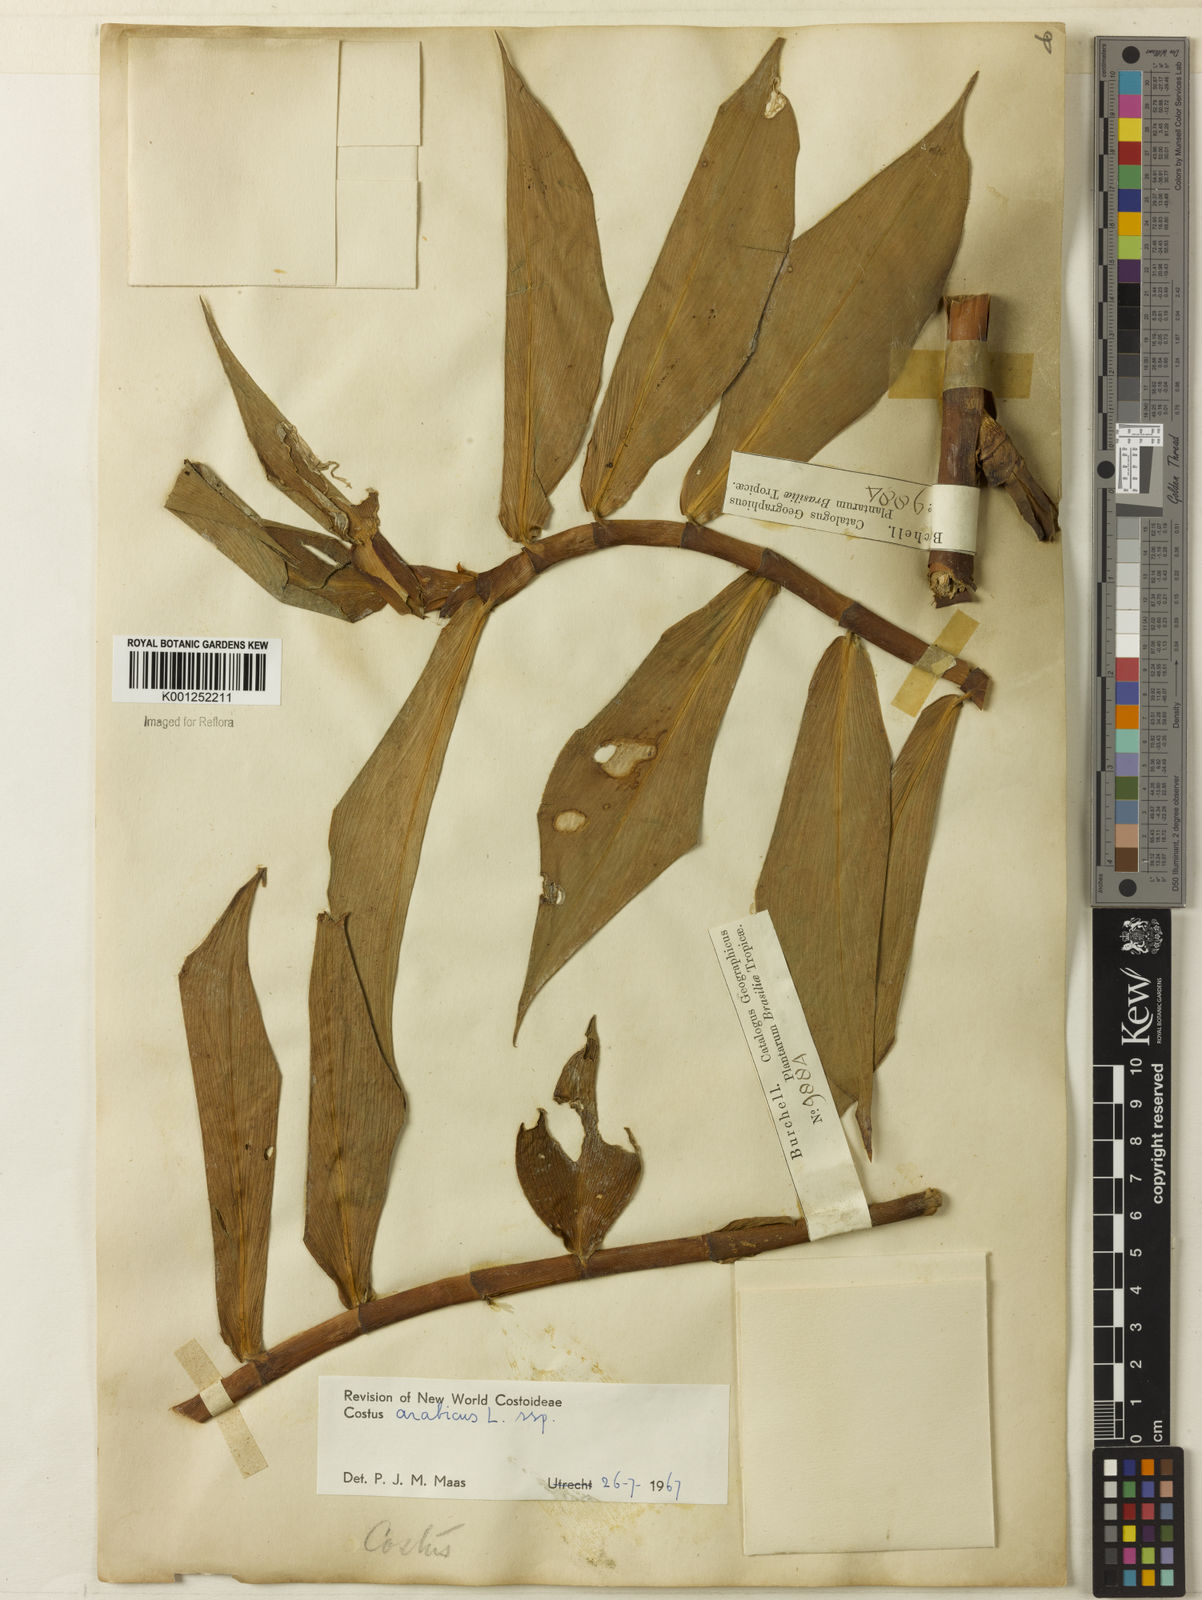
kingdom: Plantae
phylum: Tracheophyta
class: Liliopsida
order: Zingiberales
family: Costaceae
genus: Costus
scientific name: Costus arabicus
